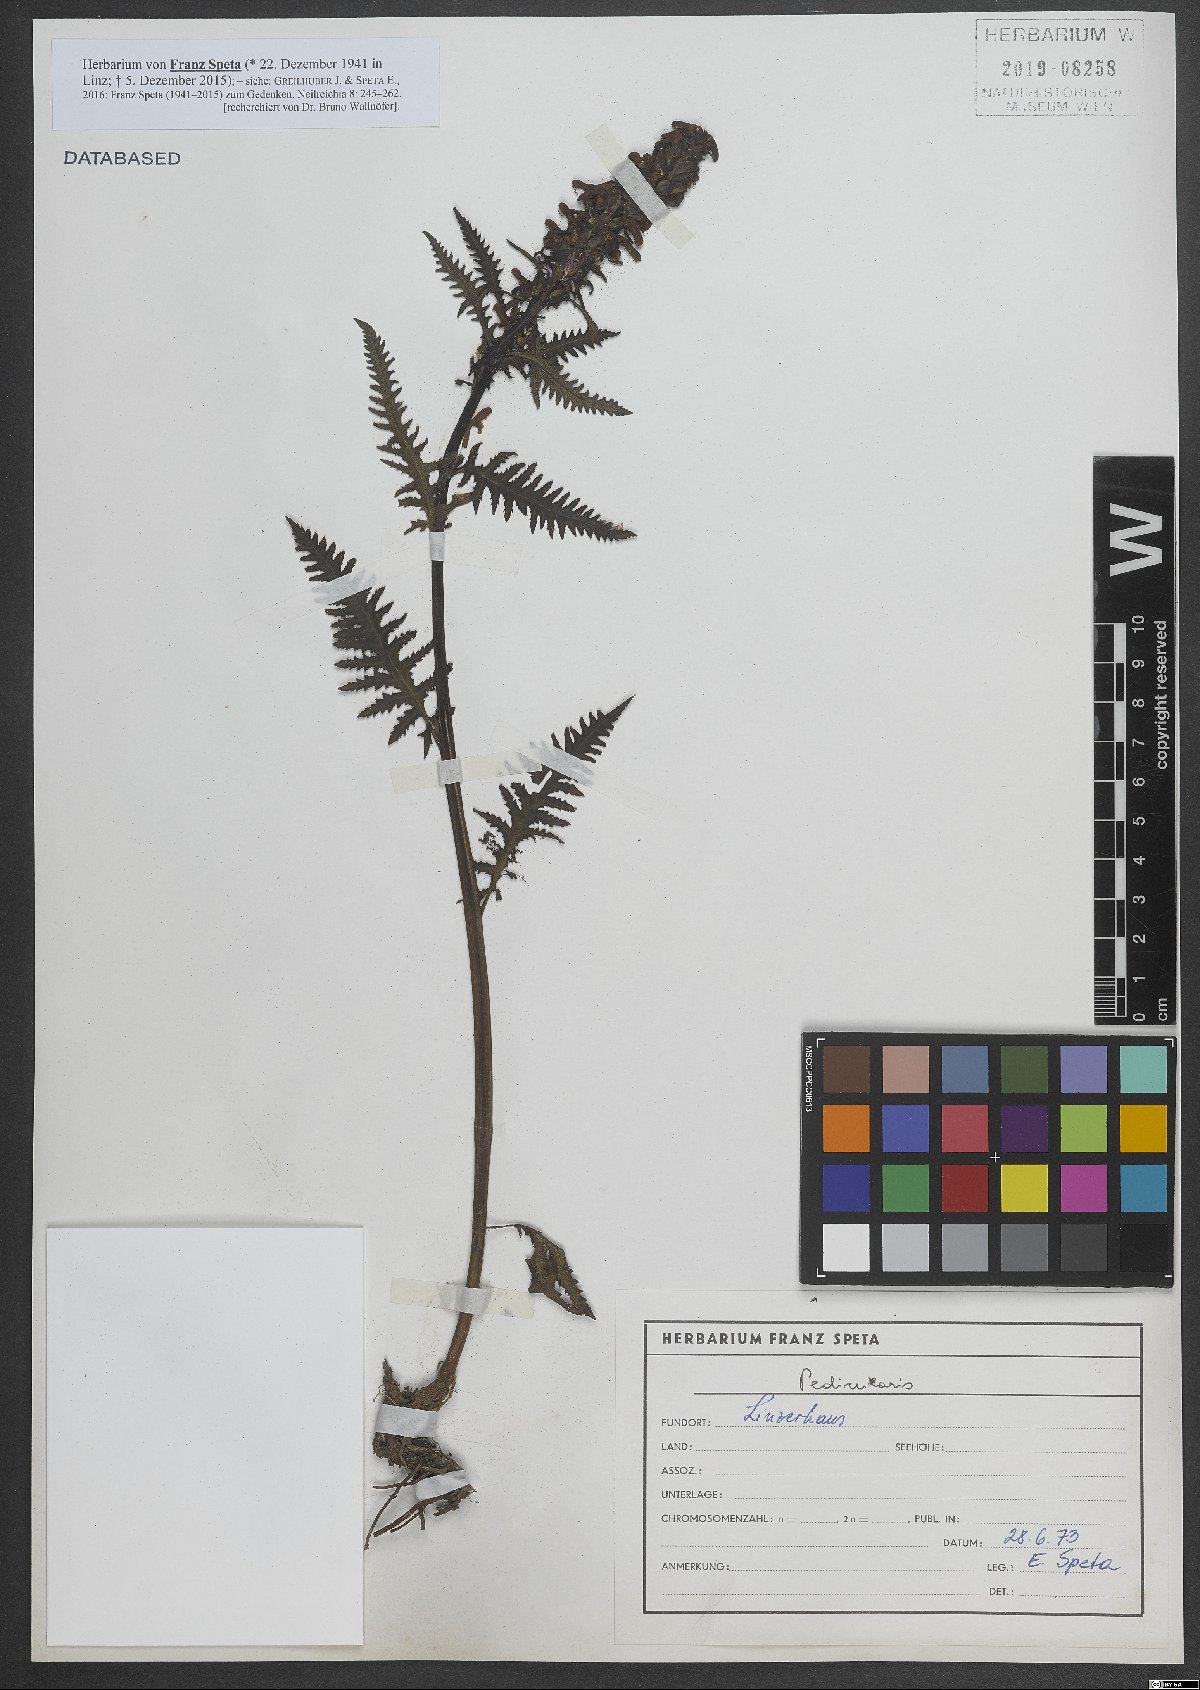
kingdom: Plantae
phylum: Tracheophyta
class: Magnoliopsida
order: Lamiales
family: Orobanchaceae
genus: Pedicularis
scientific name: Pedicularis
